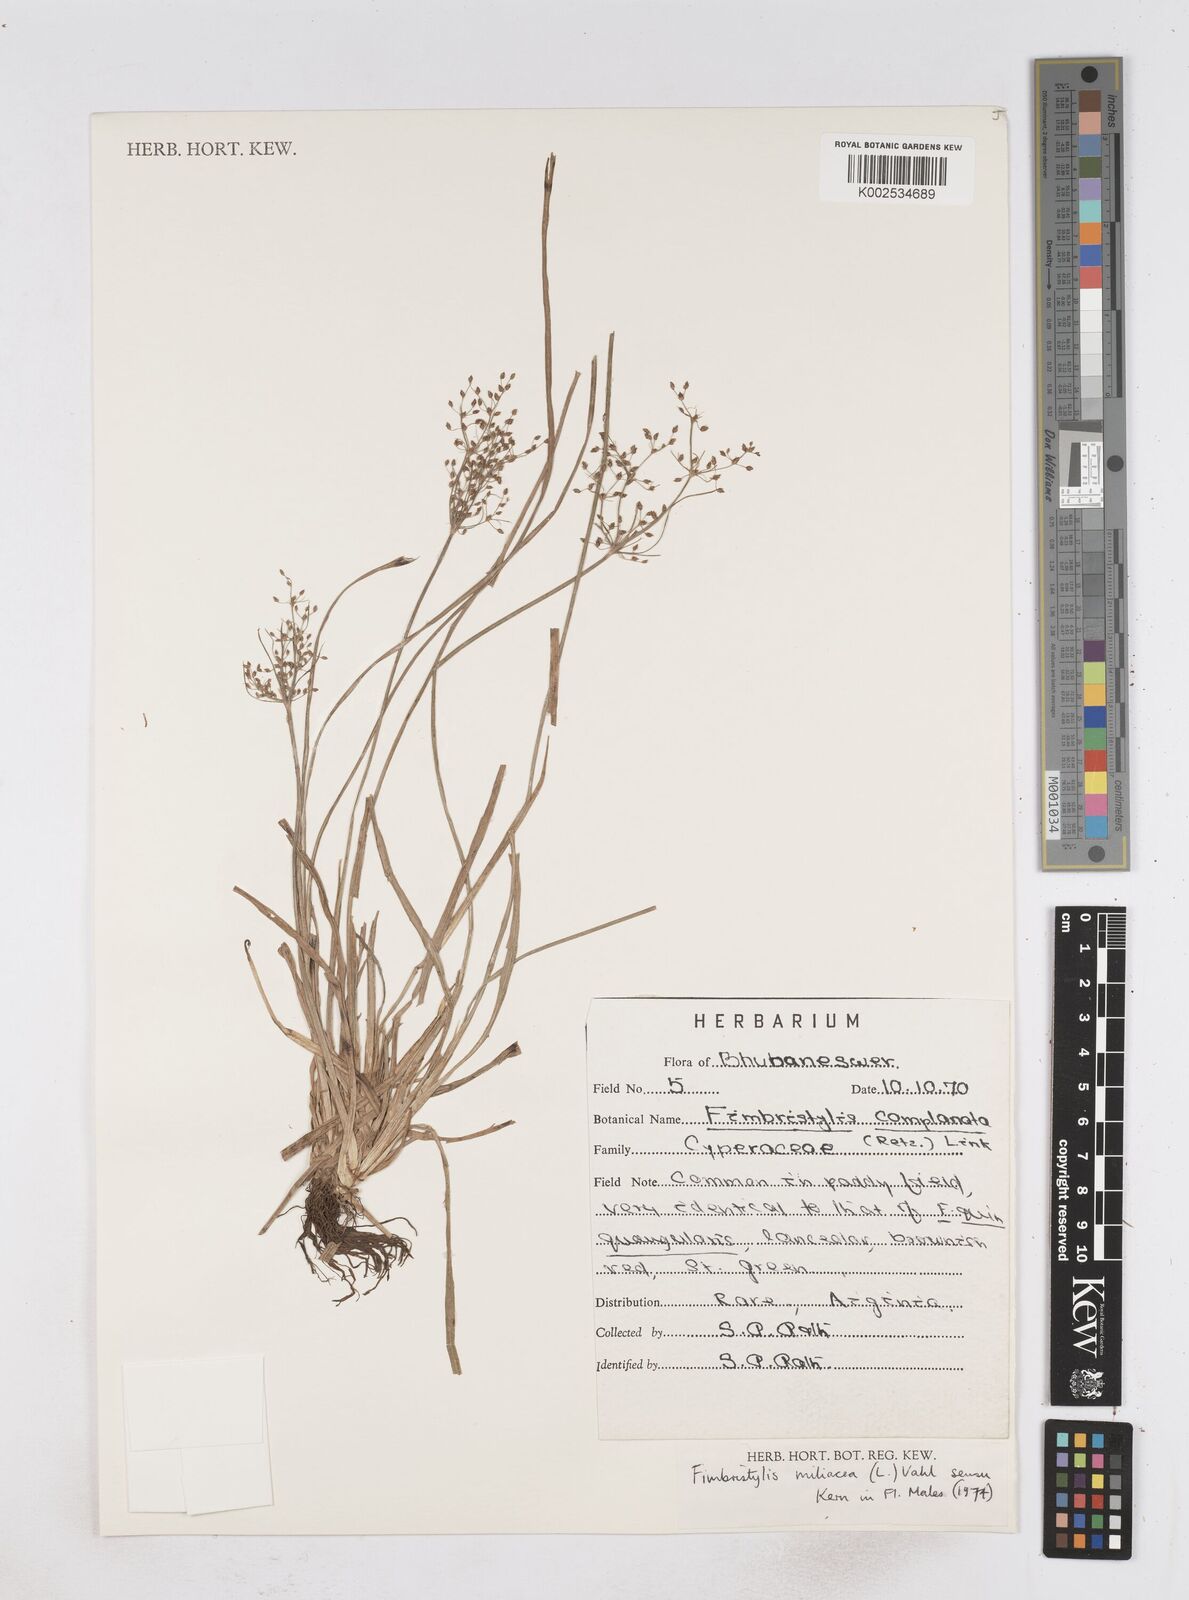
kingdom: Plantae
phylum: Tracheophyta
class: Liliopsida
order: Poales
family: Cyperaceae
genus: Fimbristylis
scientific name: Fimbristylis littoralis
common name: Fimbry
